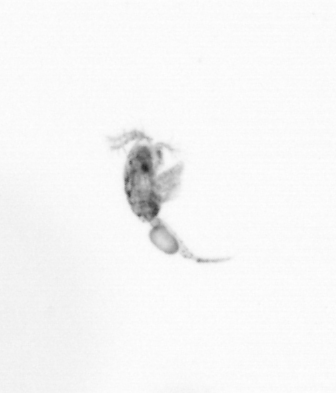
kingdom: Animalia
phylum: Arthropoda
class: Copepoda
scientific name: Copepoda
